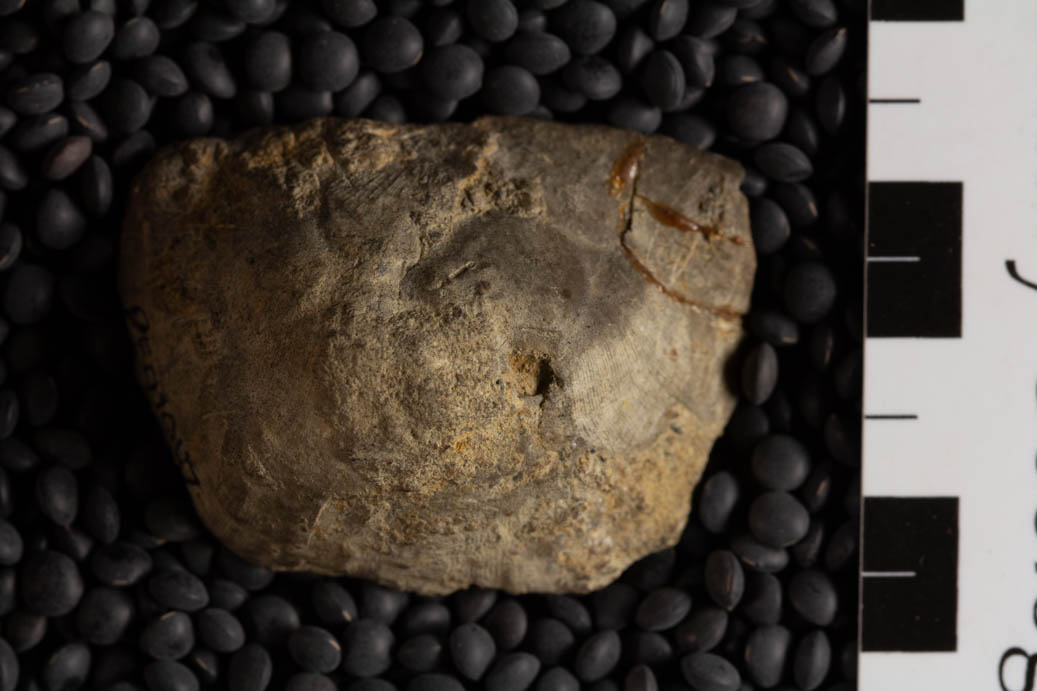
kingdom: Animalia
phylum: Brachiopoda
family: Strophomenidae
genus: Strophomena
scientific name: Strophomena
